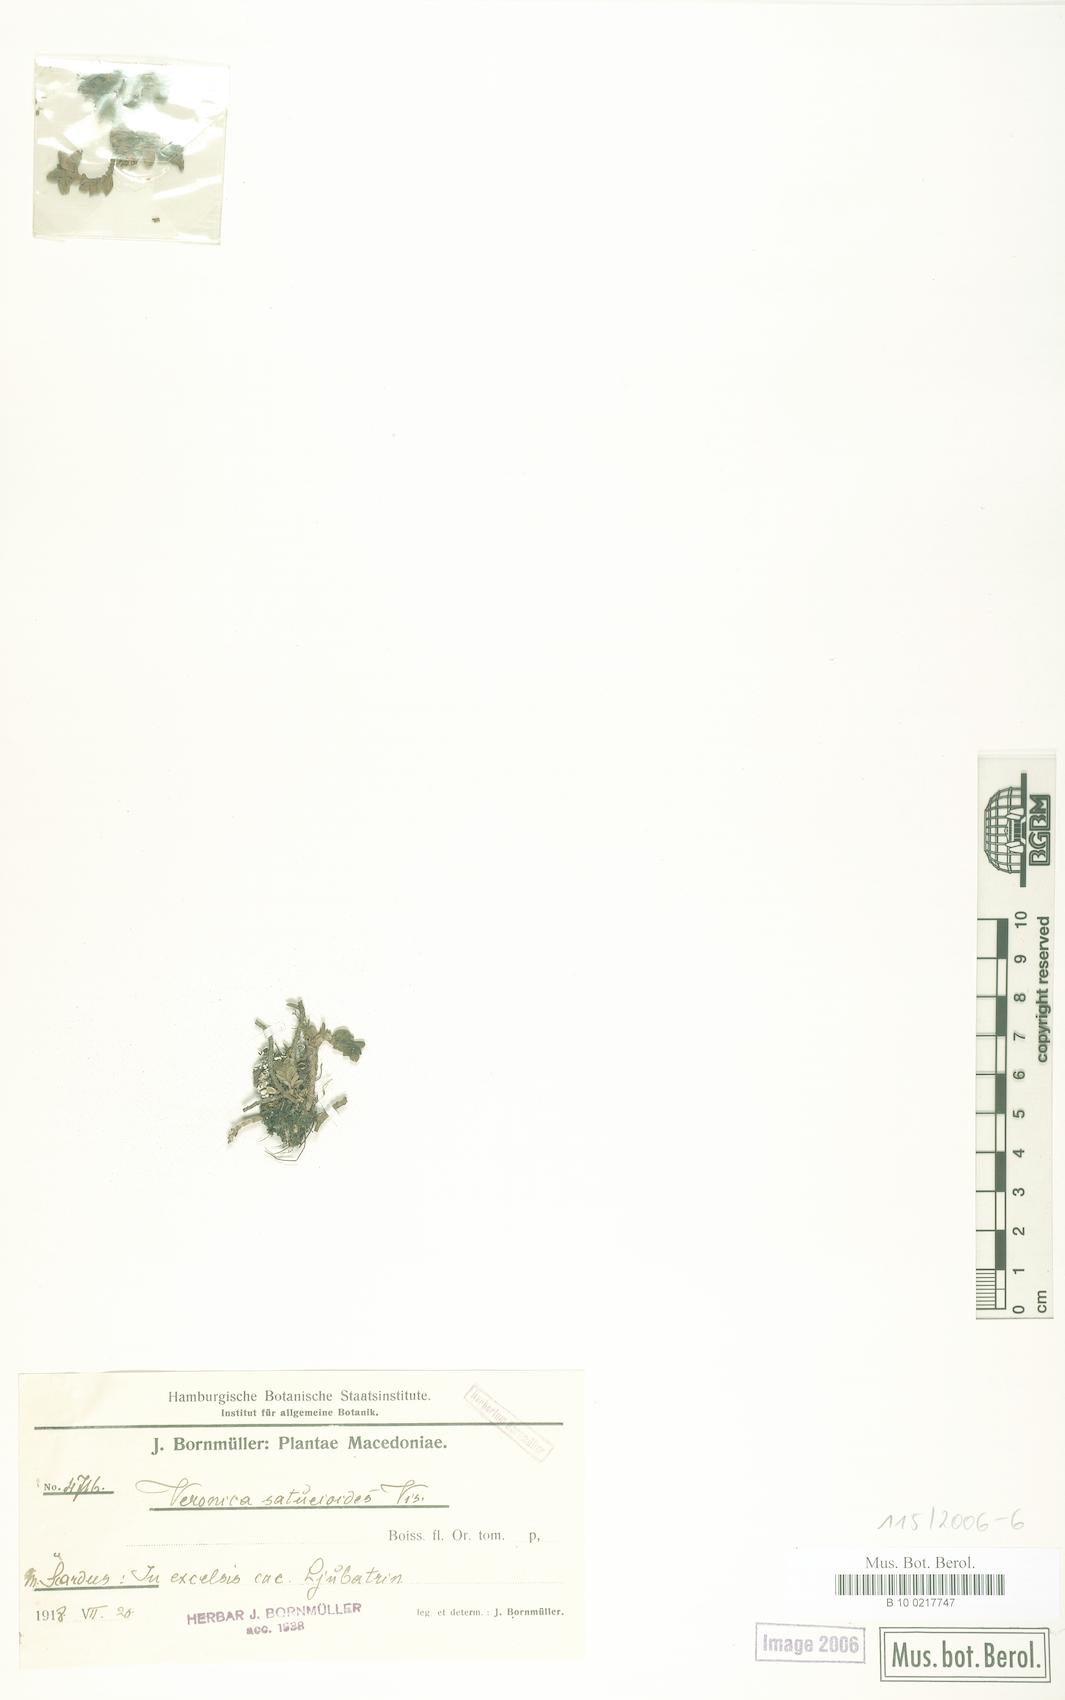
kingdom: Plantae
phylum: Tracheophyta
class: Magnoliopsida
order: Lamiales
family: Plantaginaceae
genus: Veronica
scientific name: Veronica thessalica
